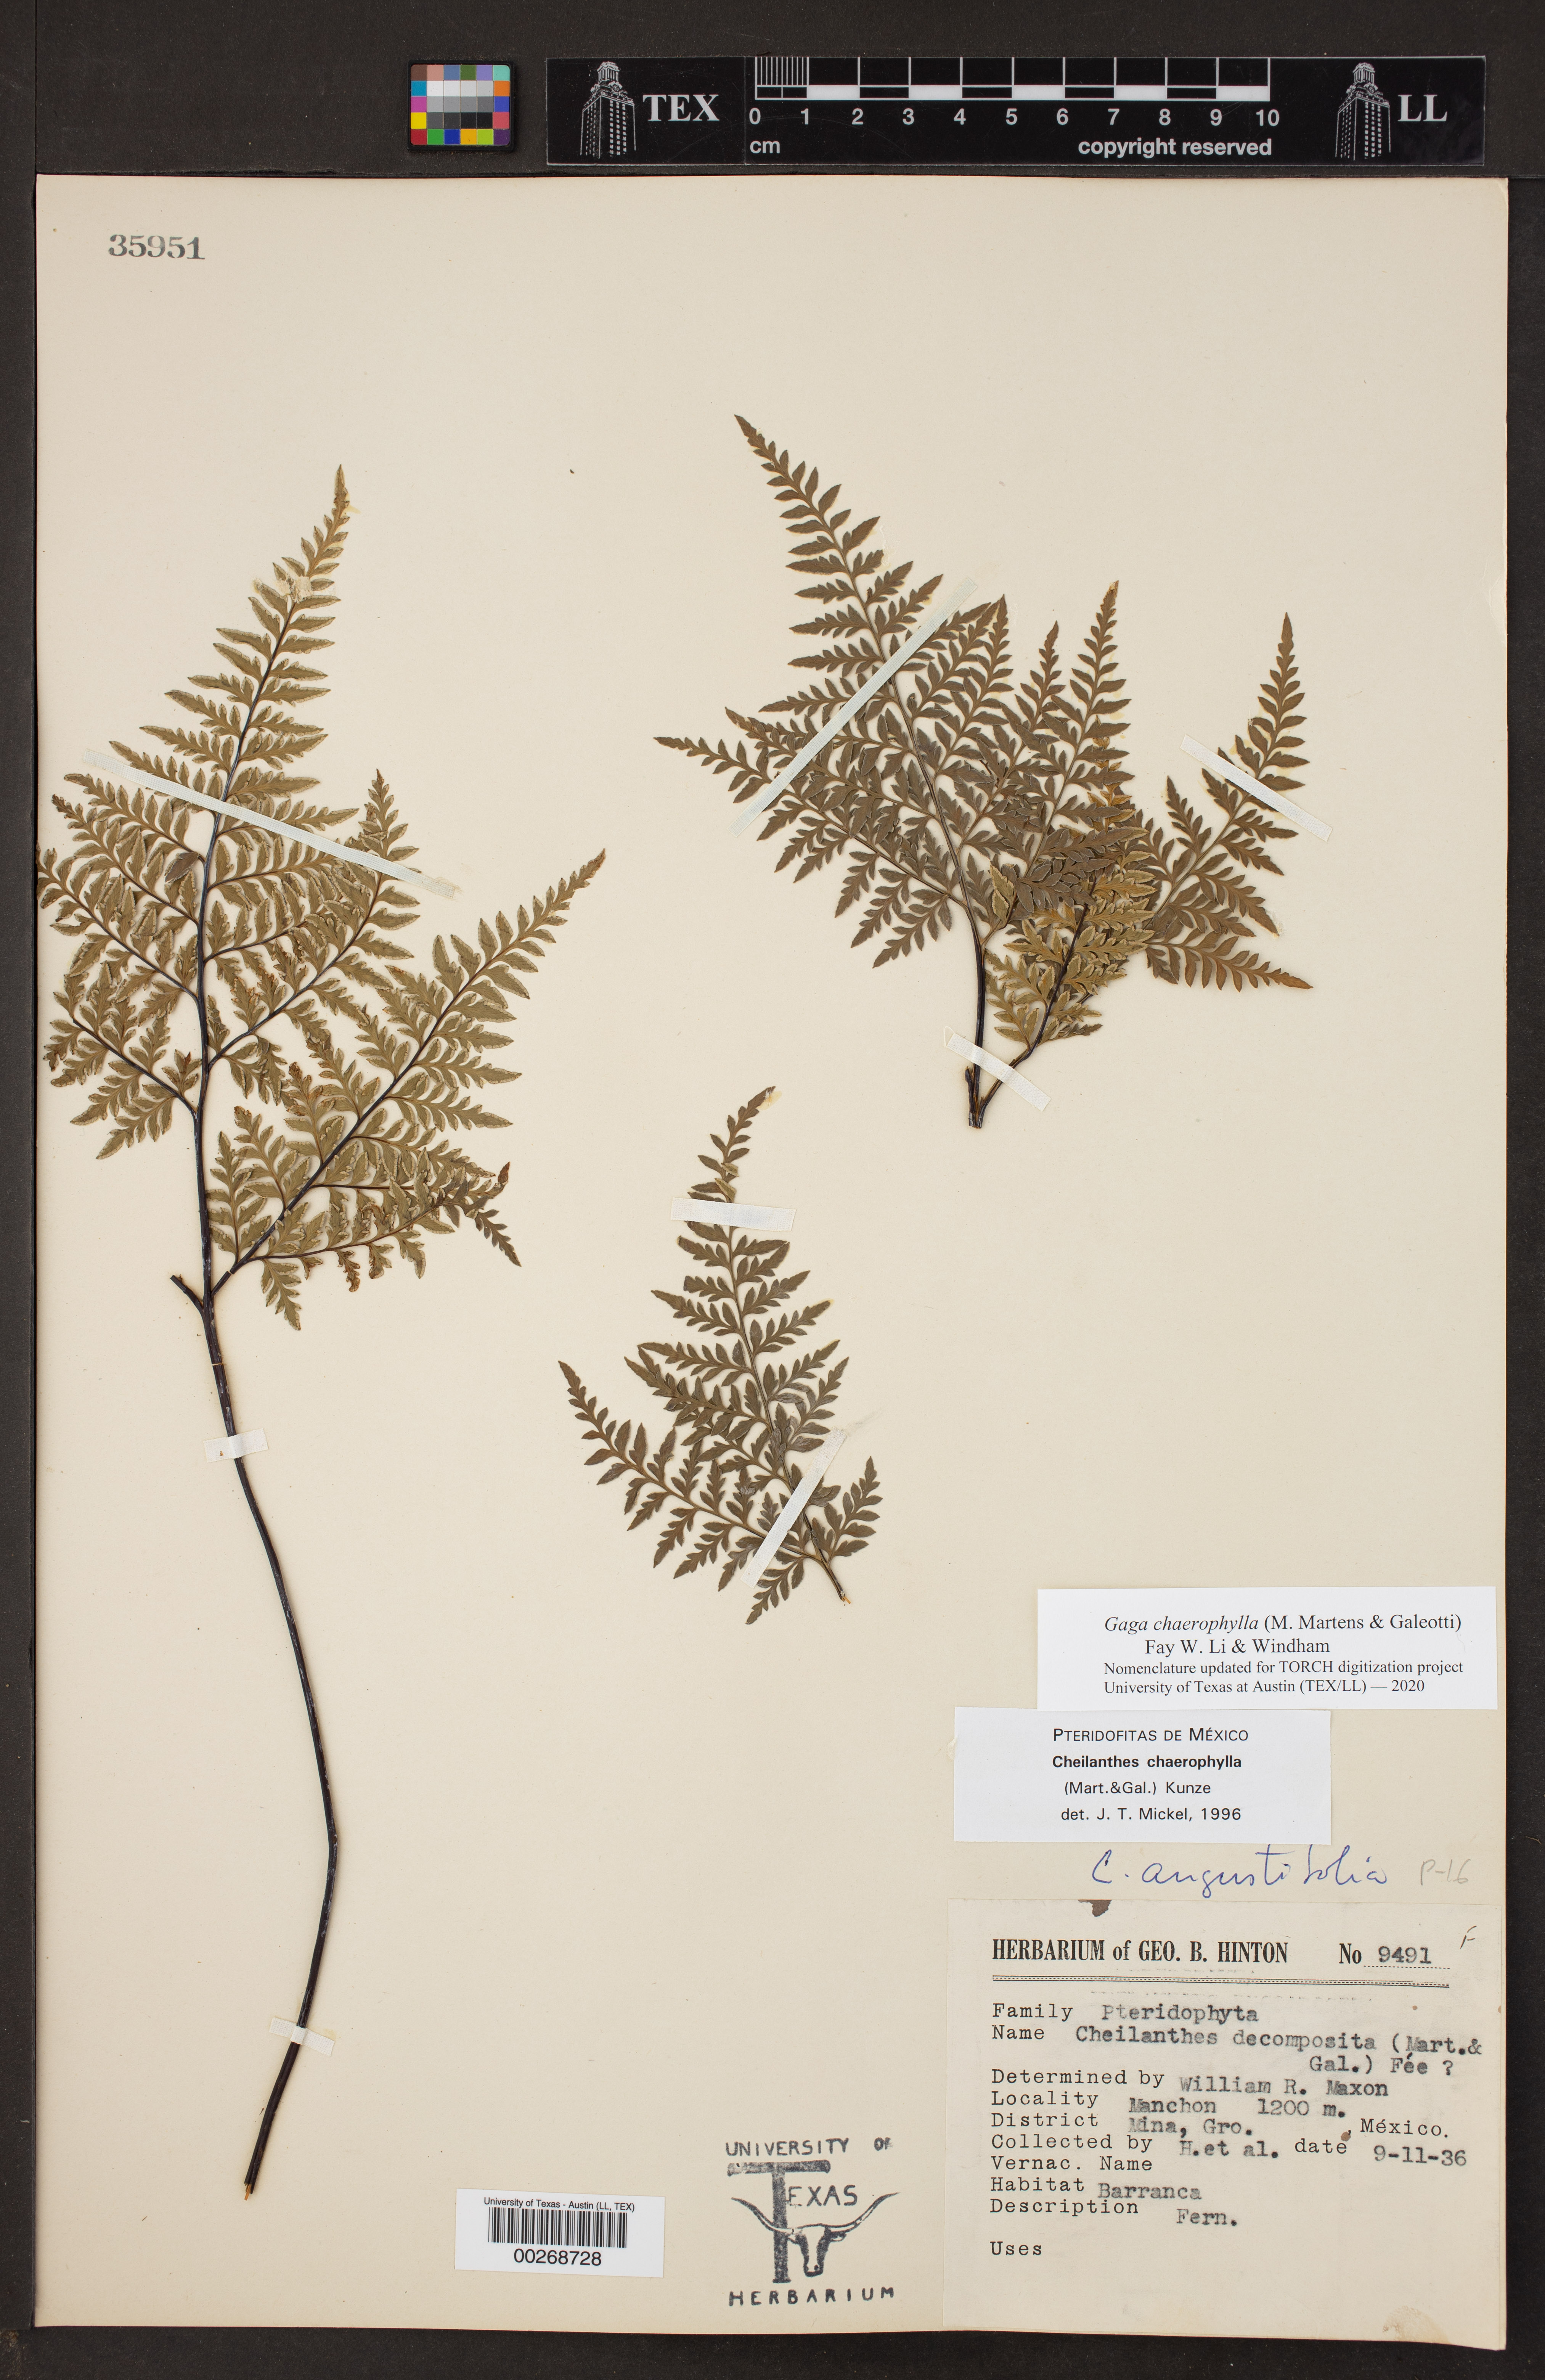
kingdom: Plantae
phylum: Tracheophyta
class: Polypodiopsida
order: Polypodiales
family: Pteridaceae
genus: Gaga
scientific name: Gaga chaerophylla
